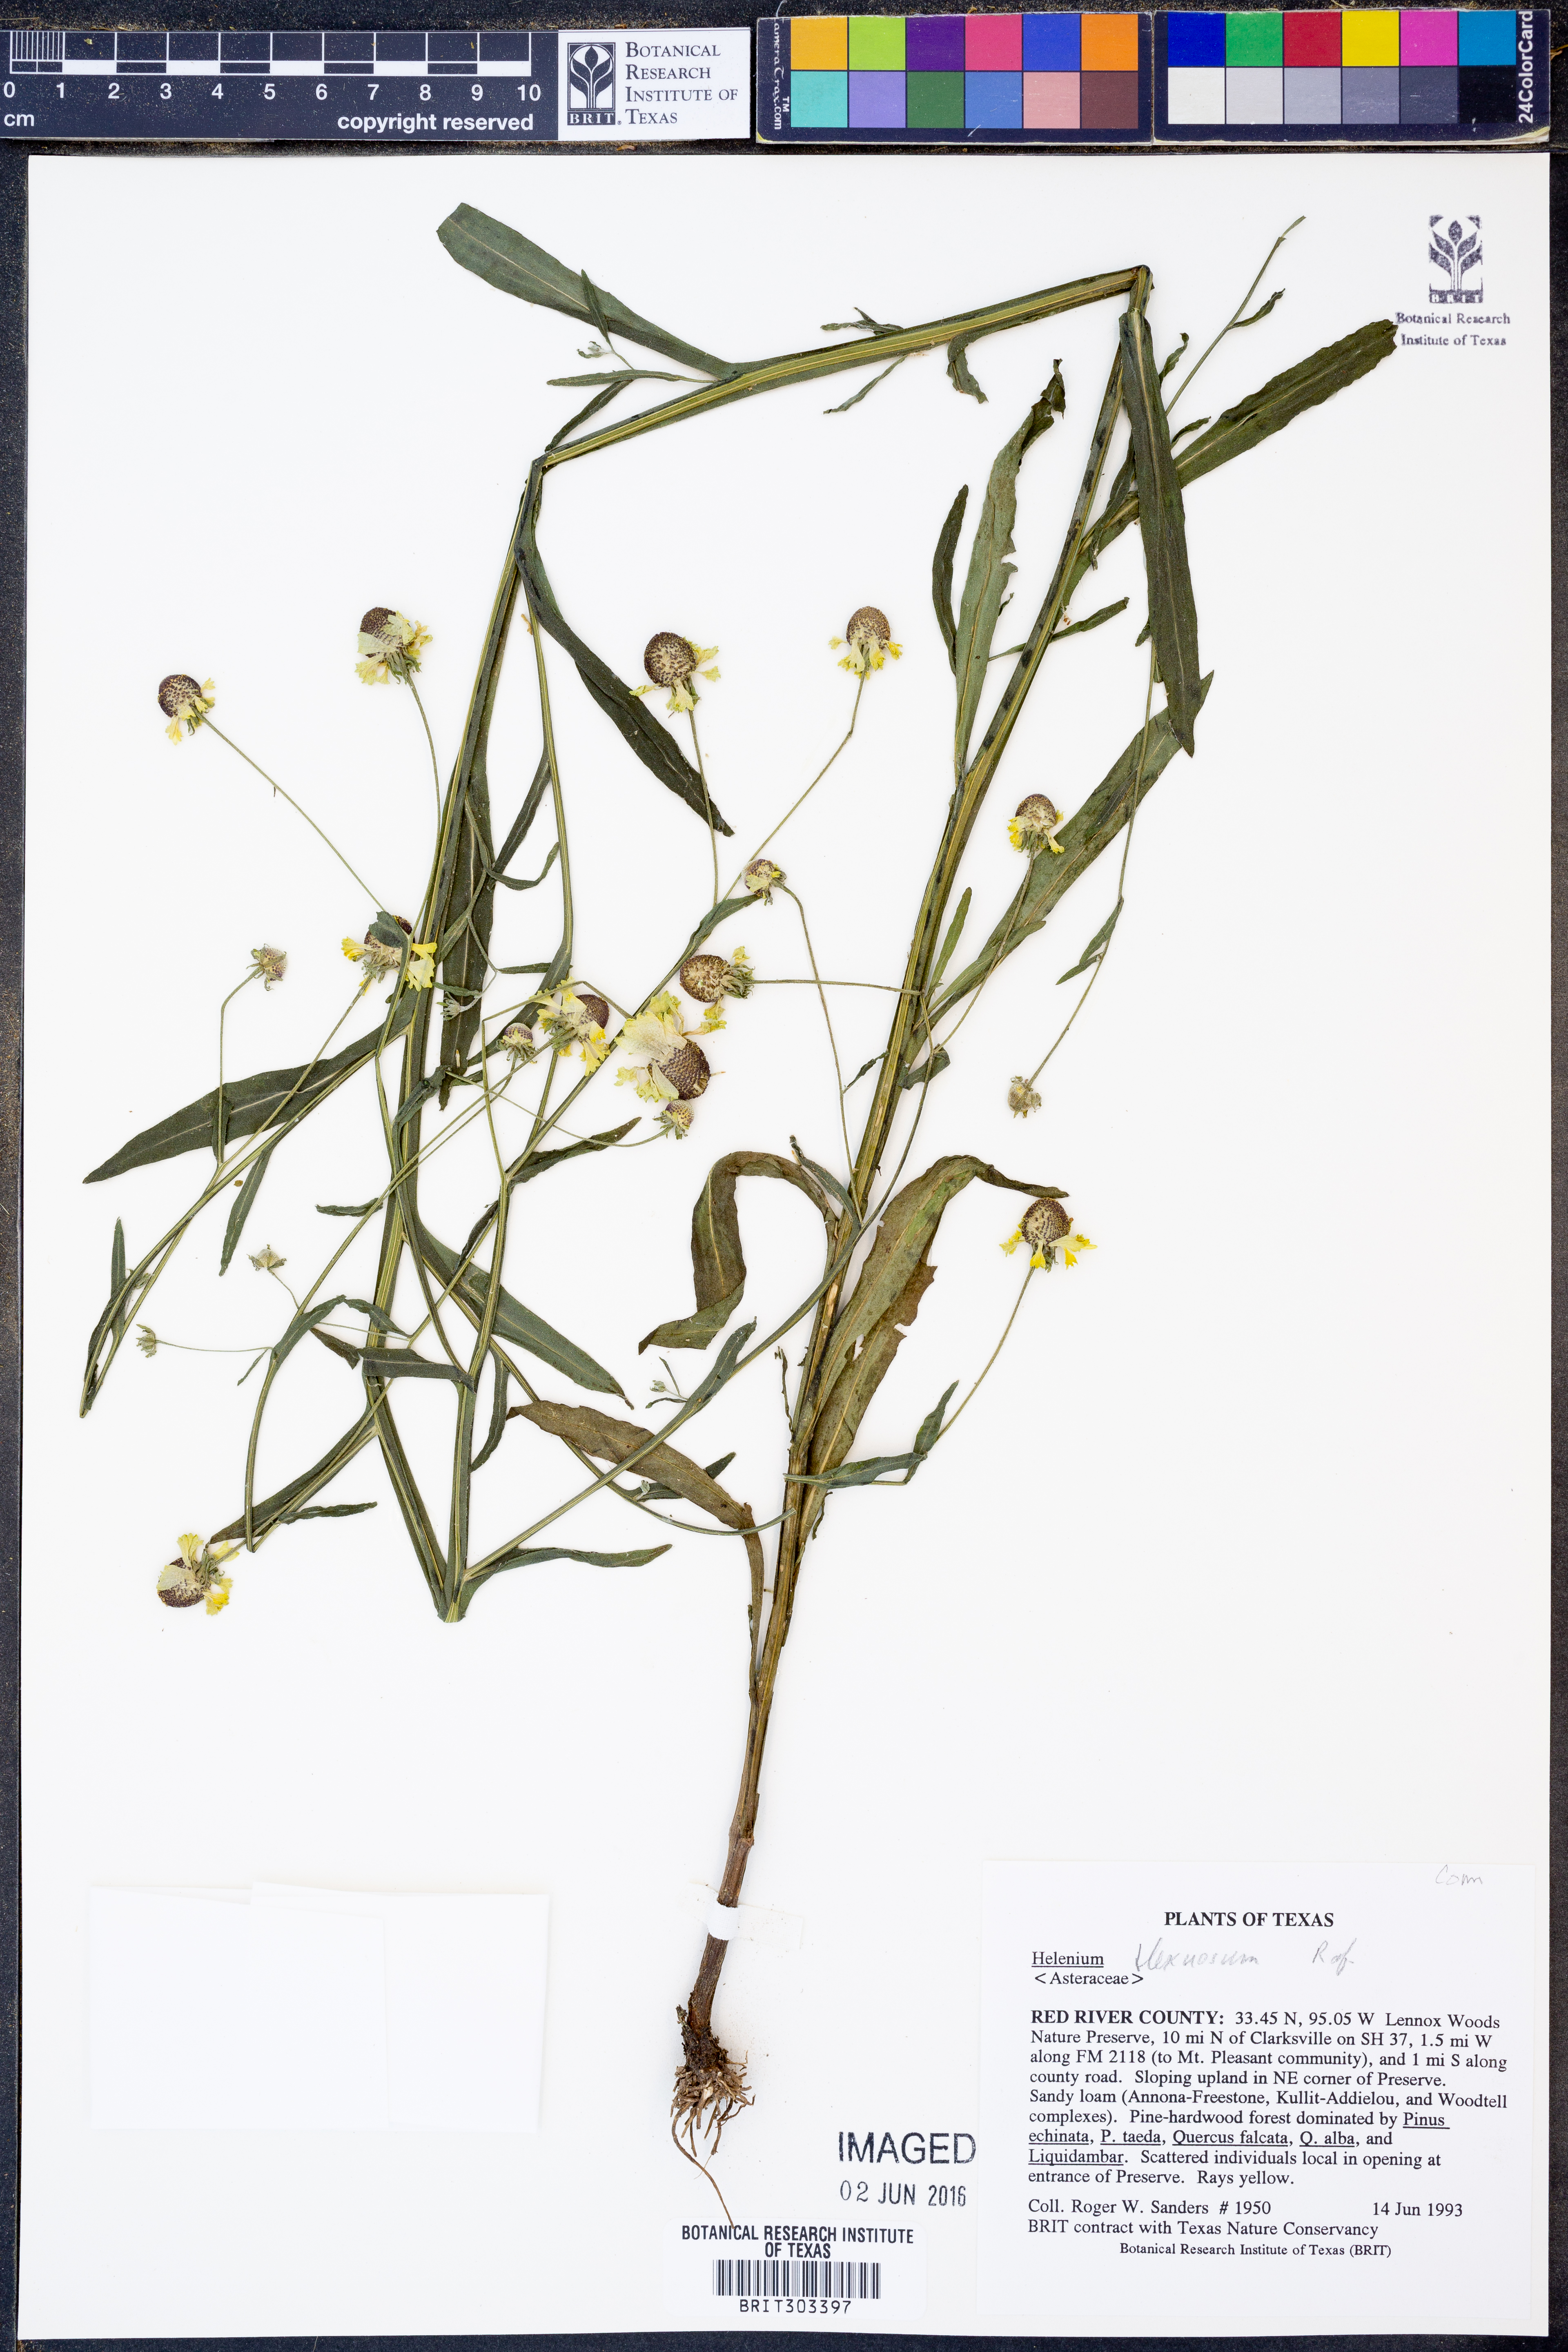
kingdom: Plantae
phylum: Tracheophyta
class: Magnoliopsida
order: Asterales
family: Asteraceae
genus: Helenium
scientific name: Helenium flexuosum
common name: Naked-flowered sneezeweed
